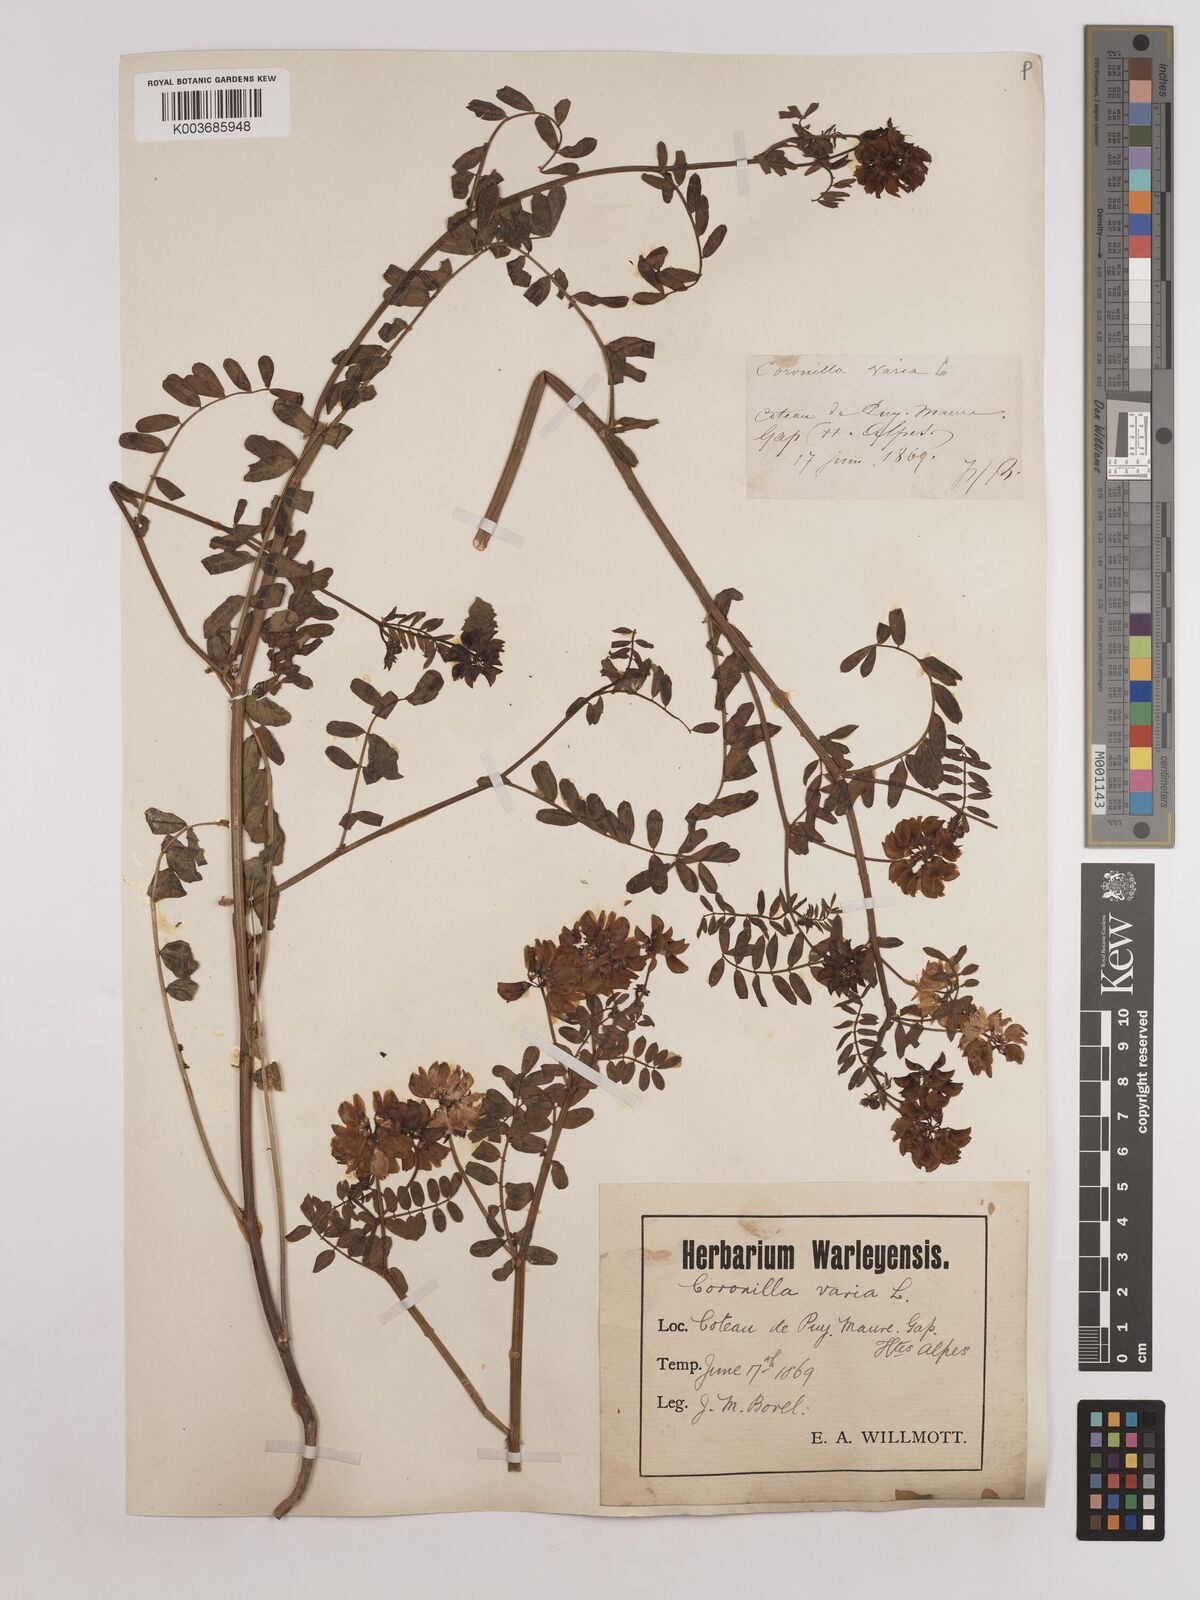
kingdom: Plantae
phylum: Tracheophyta
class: Magnoliopsida
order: Fabales
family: Fabaceae
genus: Coronilla
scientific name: Coronilla varia
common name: Crownvetch
